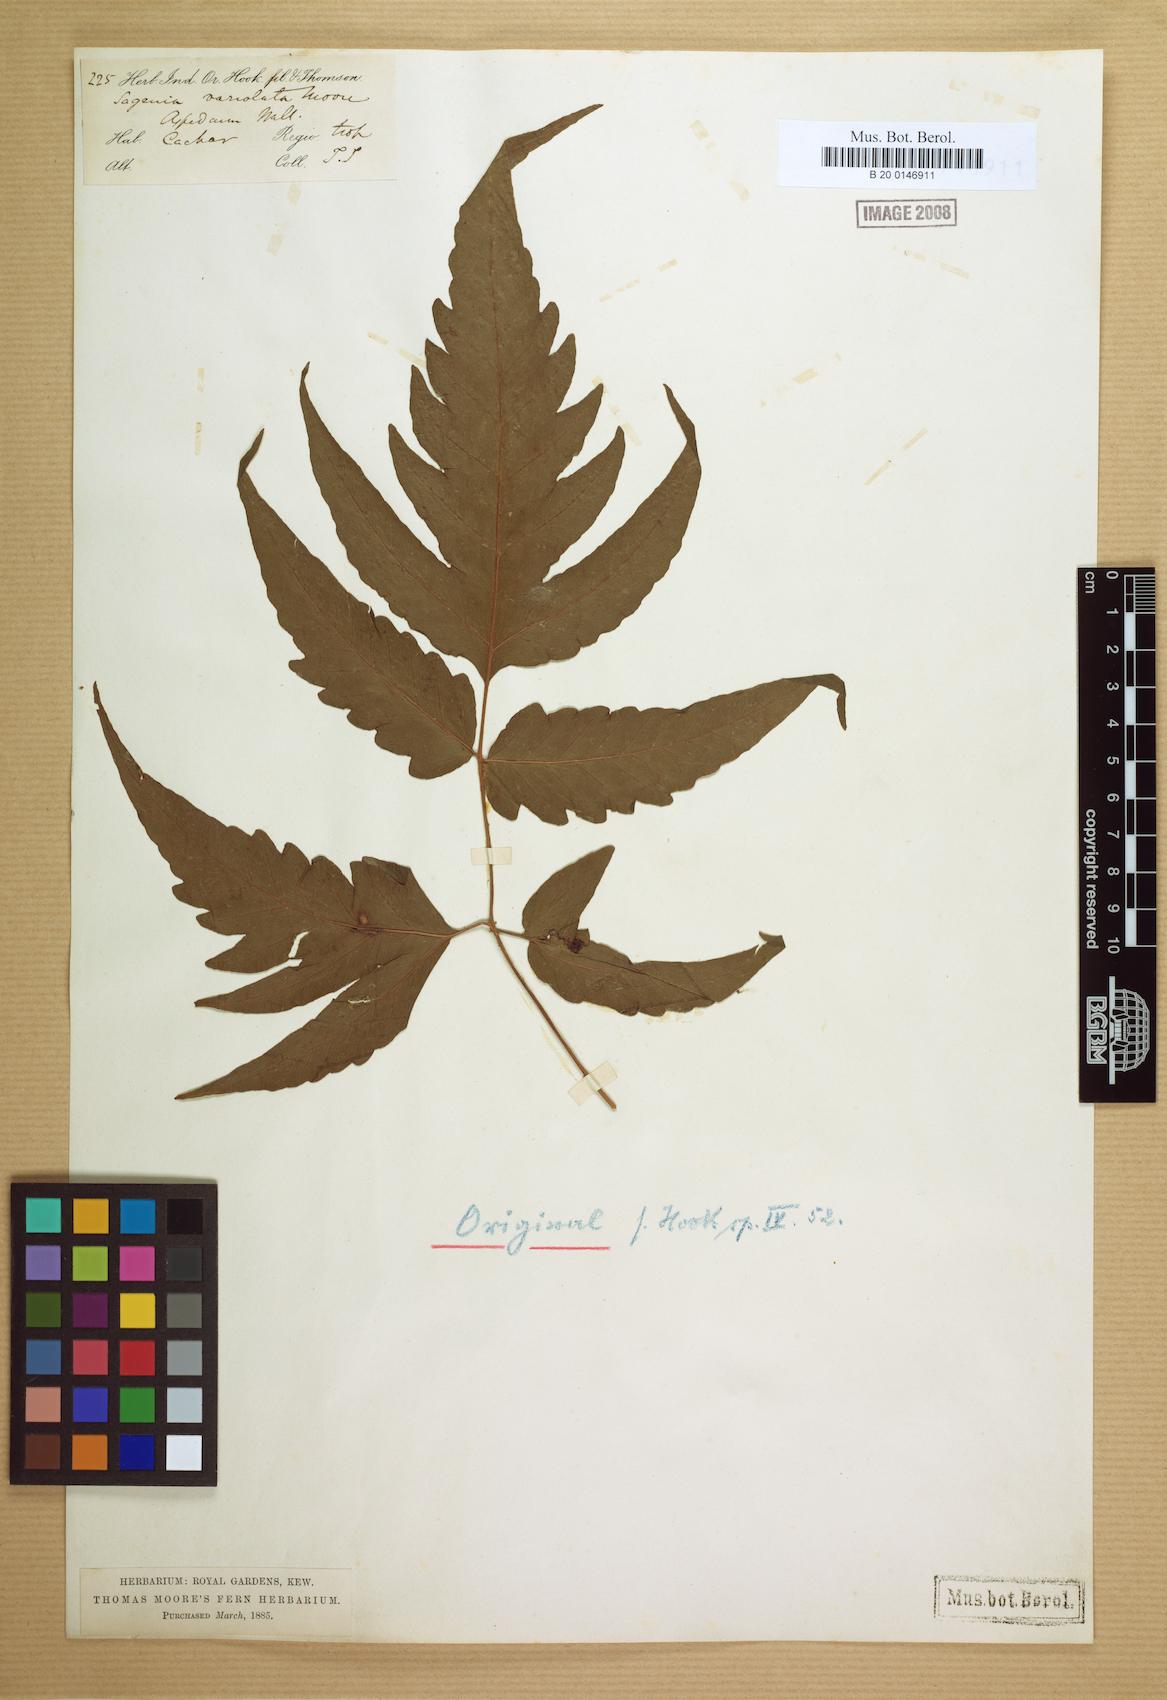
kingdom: Plantae
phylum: Tracheophyta
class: Polypodiopsida
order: Polypodiales
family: Tectariaceae
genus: Tectaria
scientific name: Tectaria impressa
